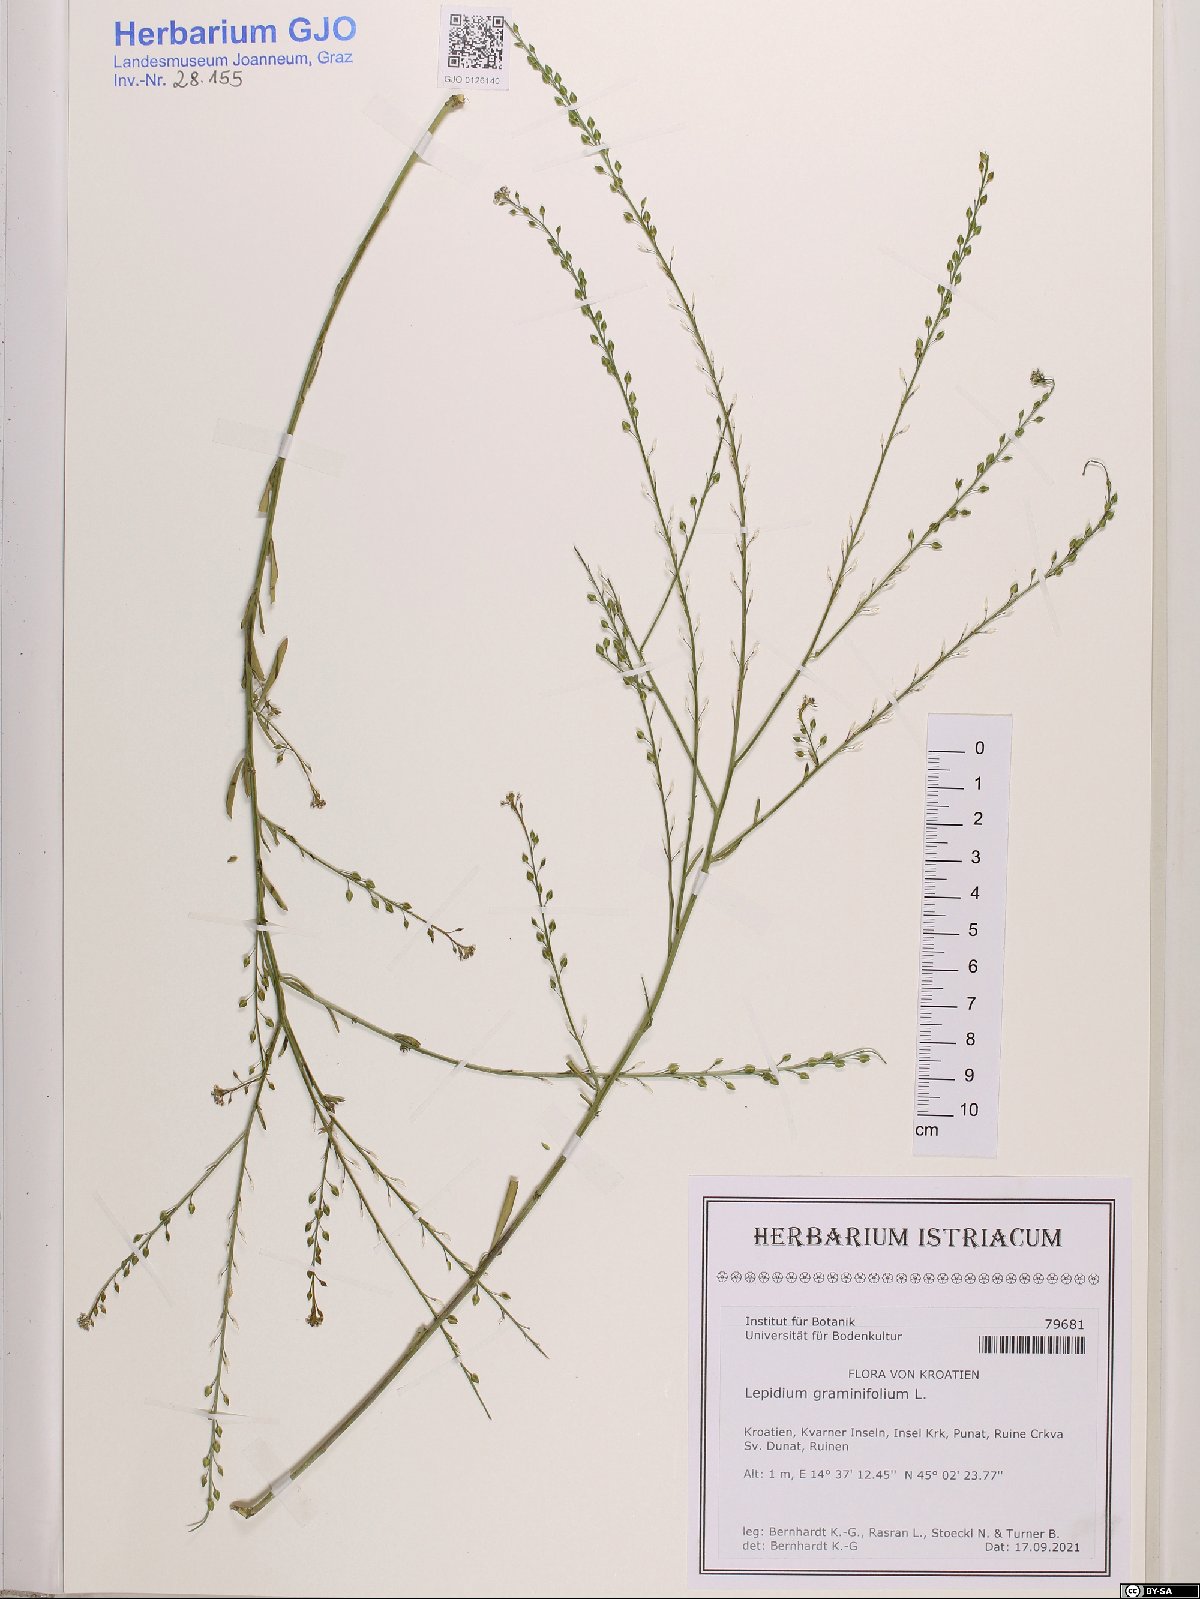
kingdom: Plantae
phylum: Tracheophyta
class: Magnoliopsida
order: Brassicales
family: Brassicaceae
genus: Lepidium
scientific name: Lepidium graminifolium
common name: Tall pepperwort
